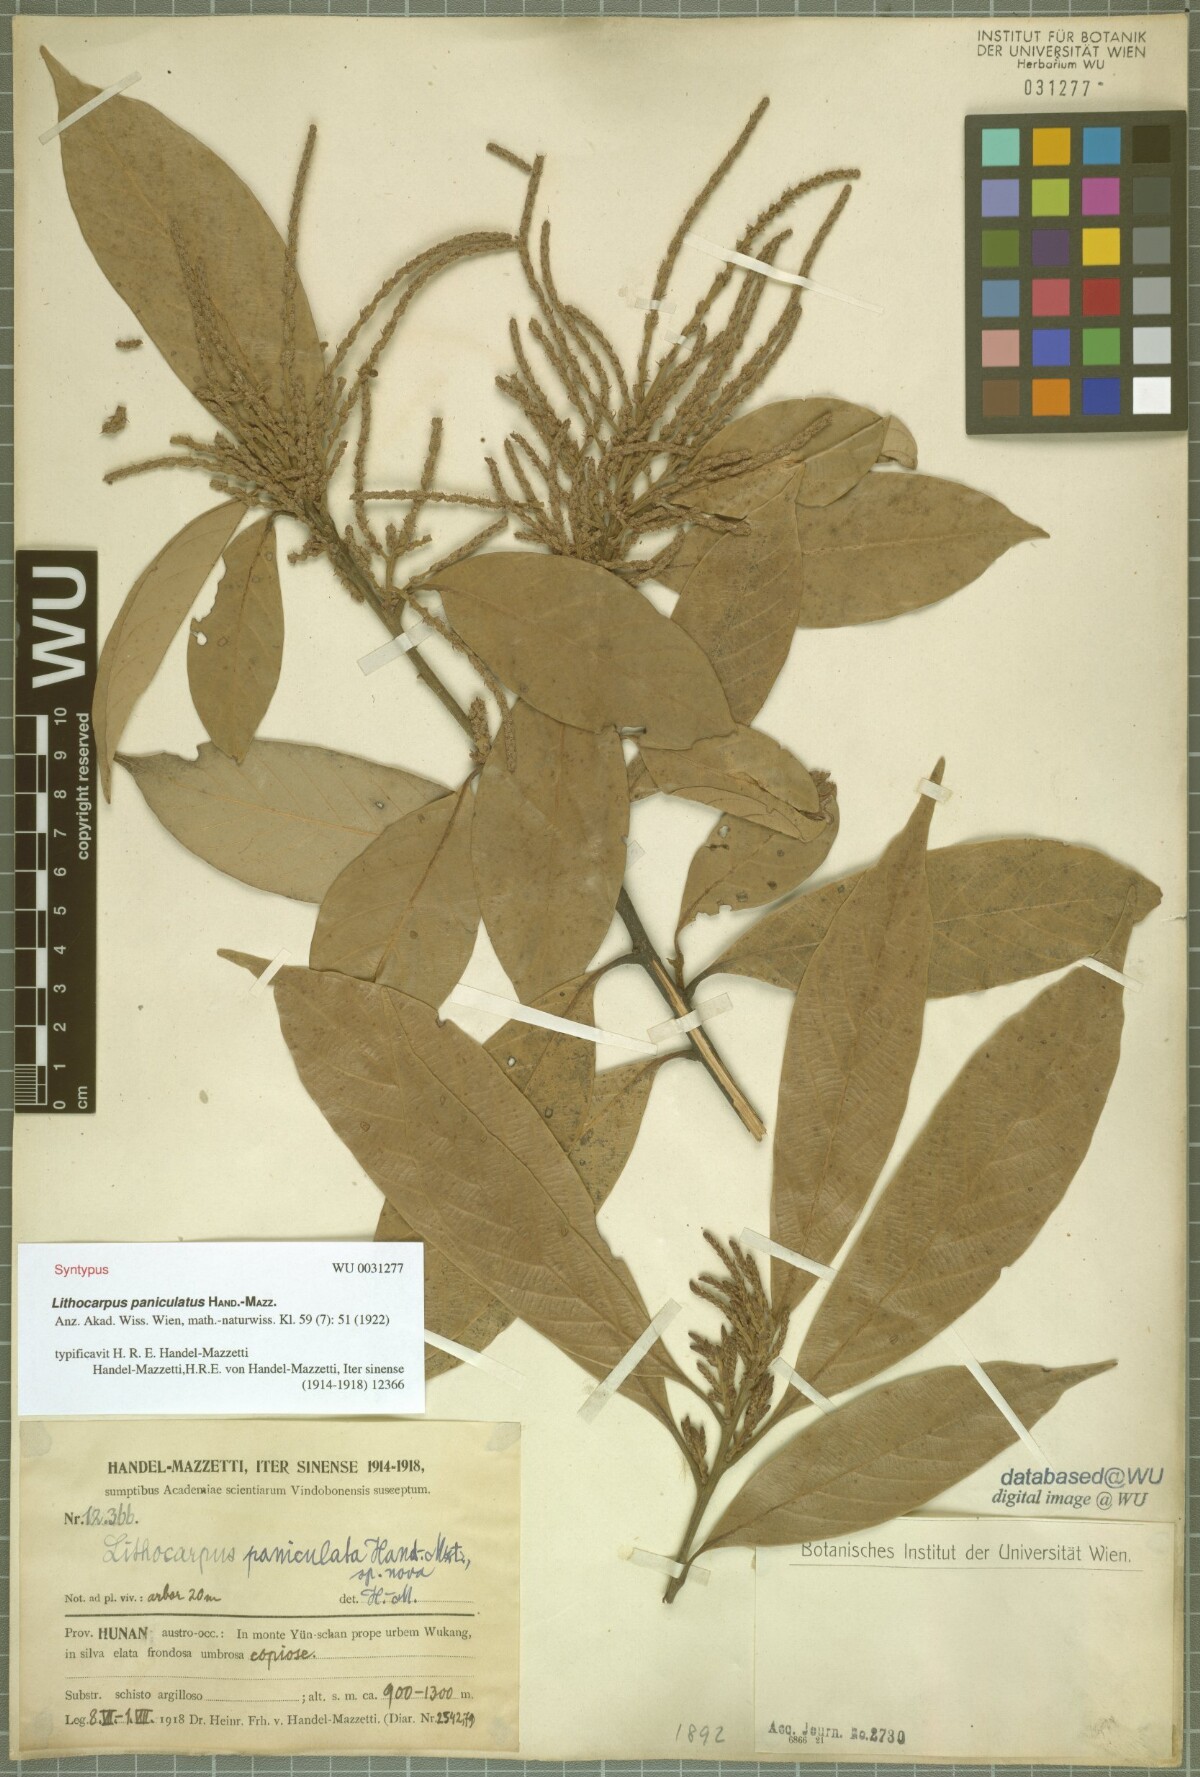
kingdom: Plantae
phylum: Tracheophyta
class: Magnoliopsida
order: Fagales
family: Fagaceae
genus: Lithocarpus
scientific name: Lithocarpus paniculatus
